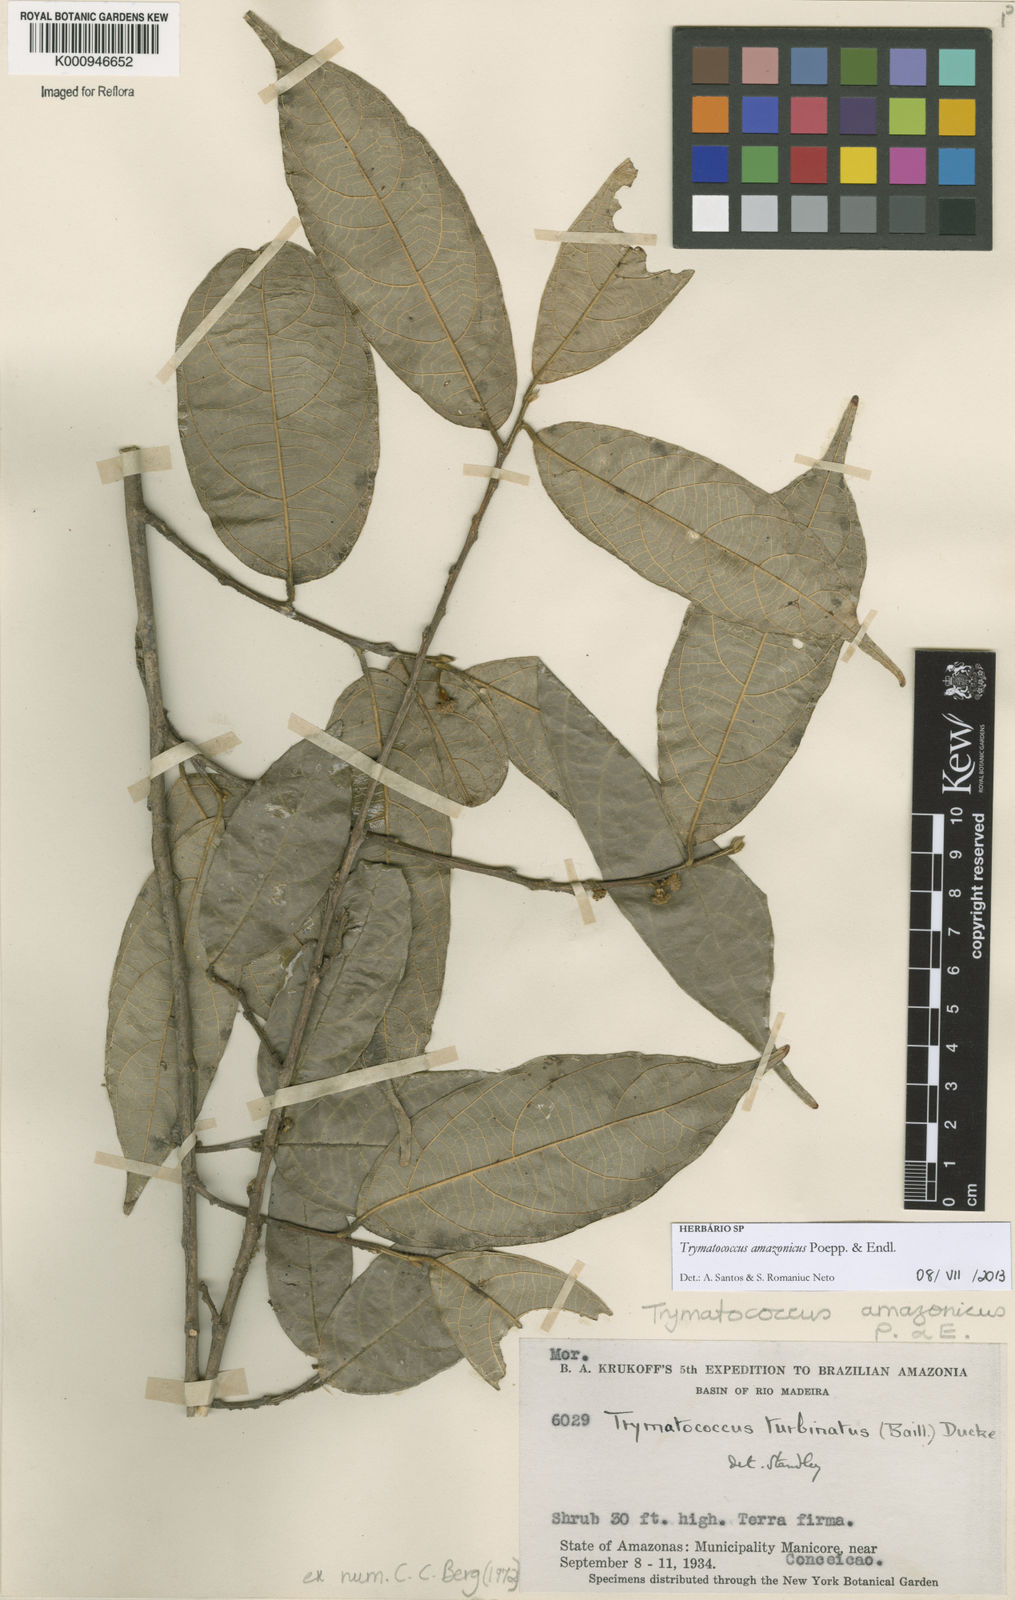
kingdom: Plantae
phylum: Tracheophyta
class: Magnoliopsida
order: Rosales
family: Moraceae
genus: Brosimum
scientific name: Brosimum amazonicum
